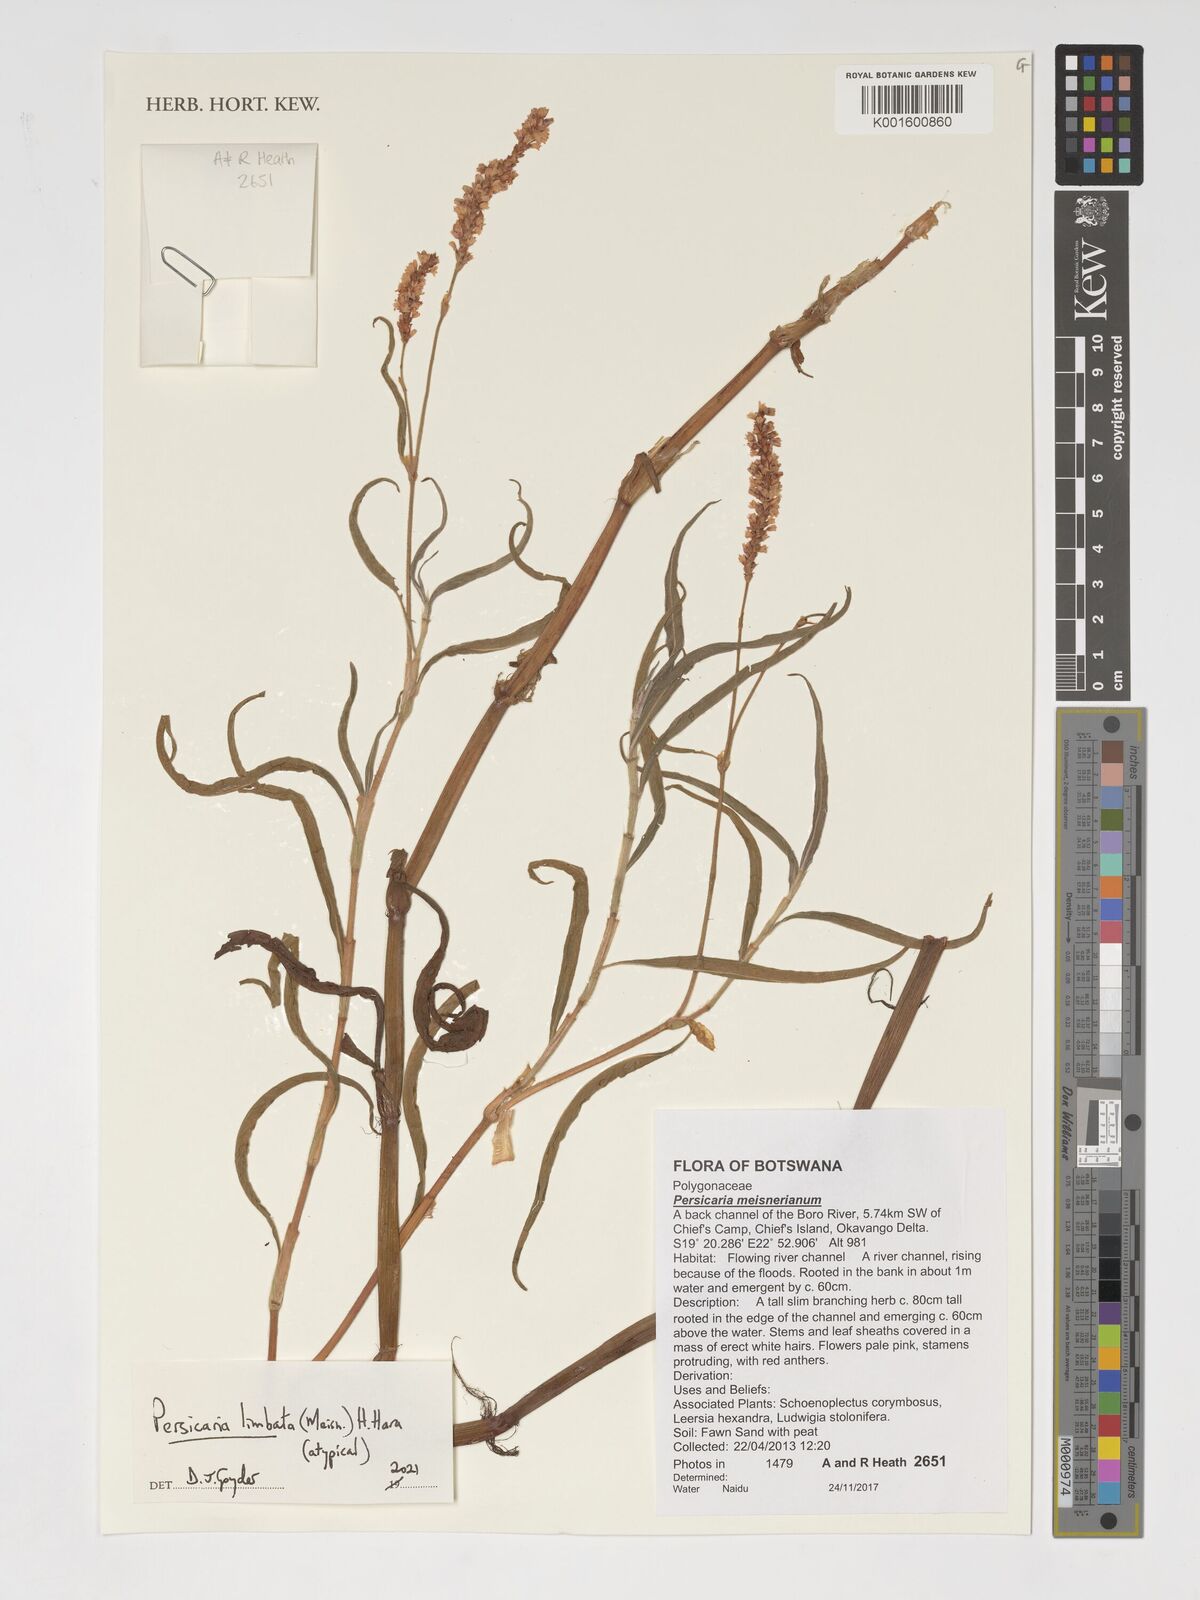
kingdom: Plantae
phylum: Tracheophyta
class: Magnoliopsida
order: Caryophyllales
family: Polygonaceae
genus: Persicaria
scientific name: Persicaria limbata
